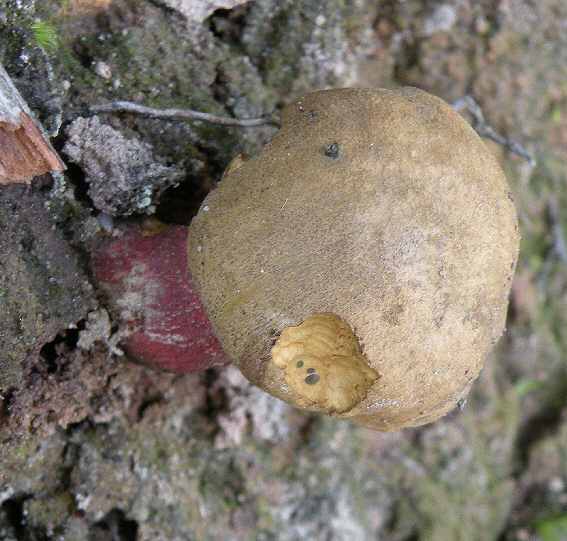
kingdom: Fungi
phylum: Basidiomycota
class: Agaricomycetes
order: Boletales
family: Boletaceae
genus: Caloboletus
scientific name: Caloboletus calopus
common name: skønfodet rørhat
